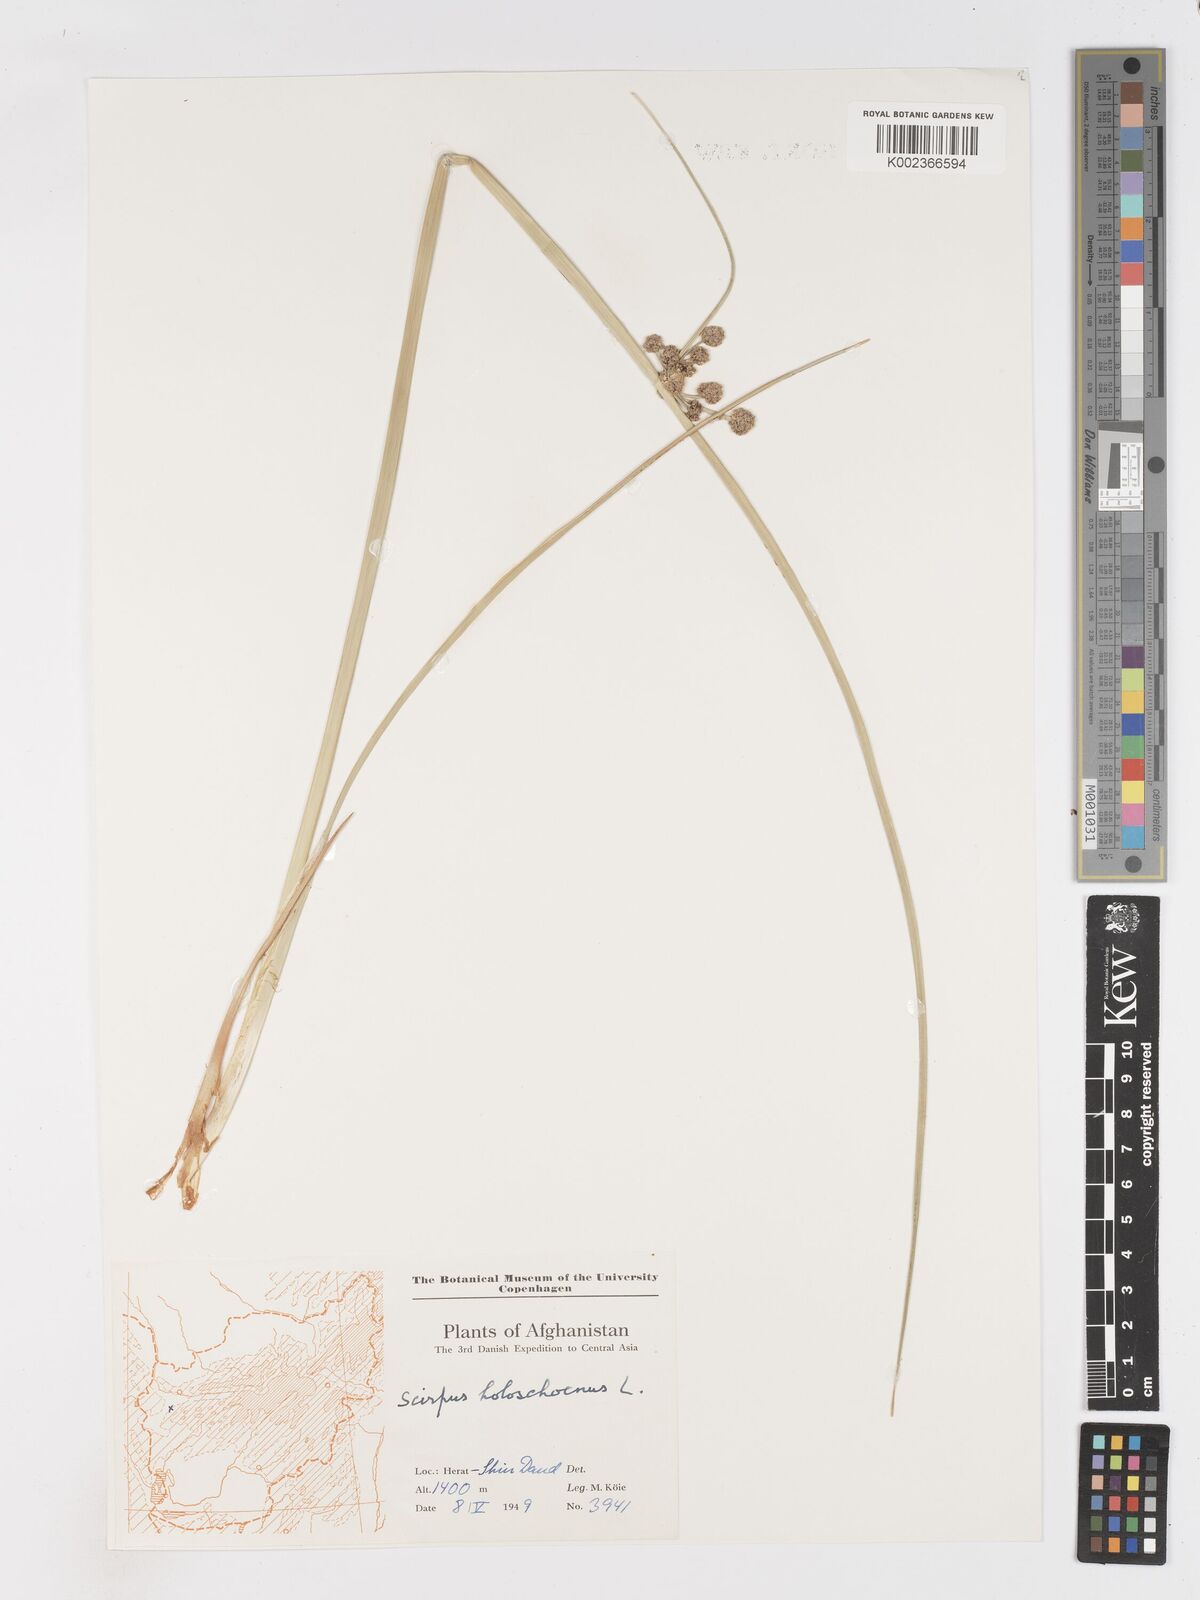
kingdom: Plantae
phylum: Tracheophyta
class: Liliopsida
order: Poales
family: Cyperaceae
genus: Scirpoides
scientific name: Scirpoides holoschoenus
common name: Round-headed club-rush
